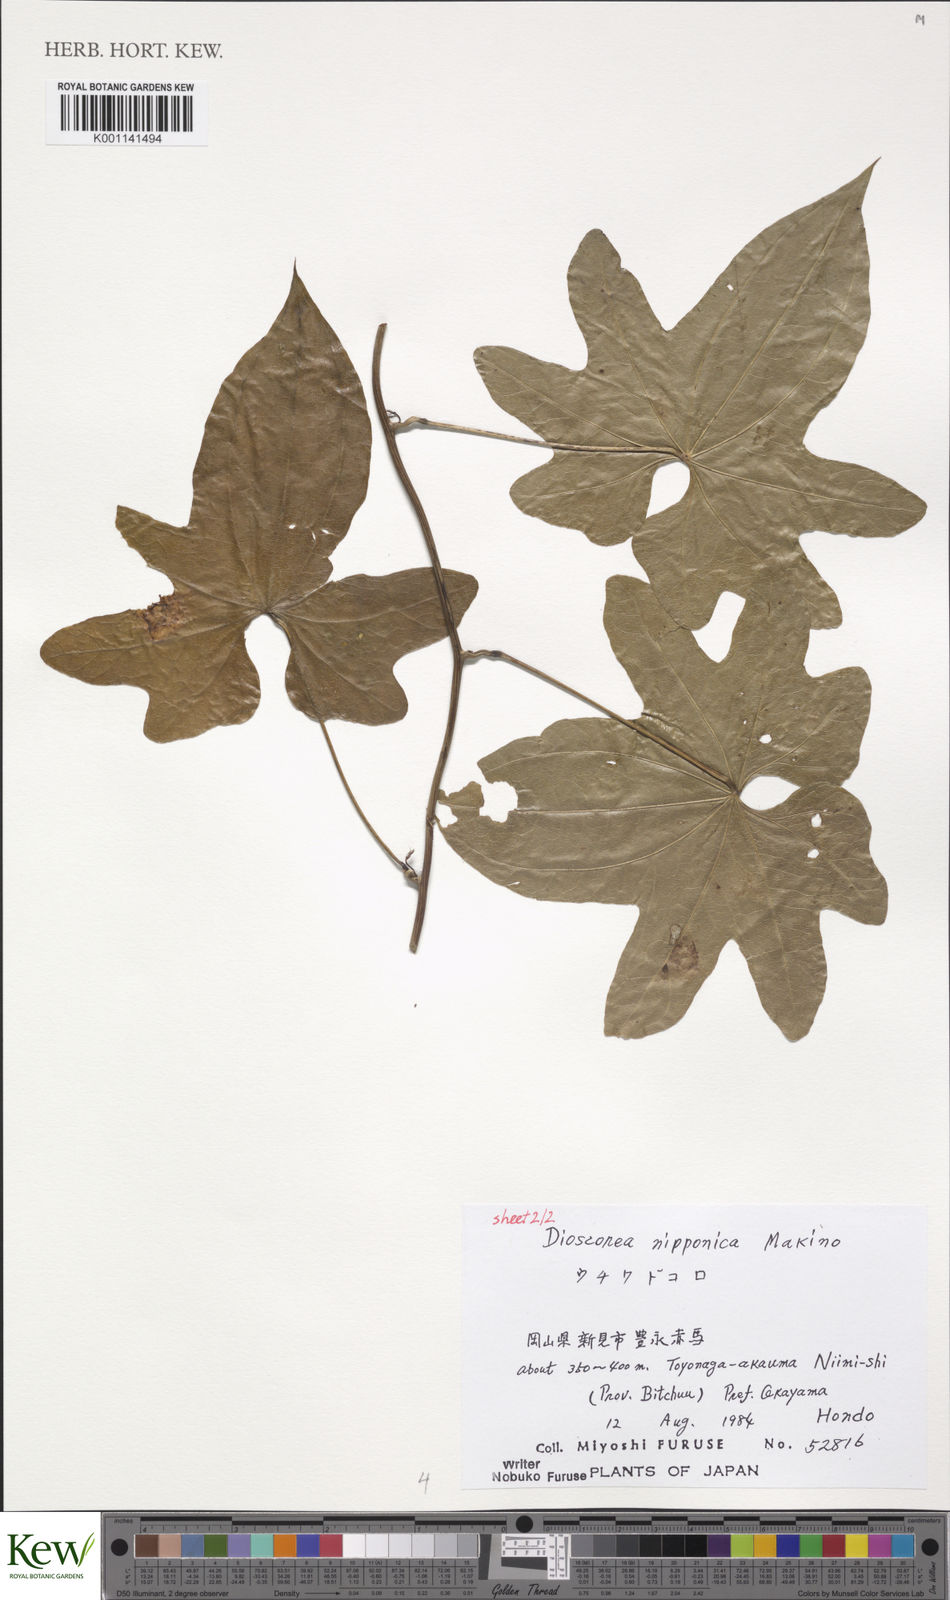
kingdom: Plantae
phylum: Tracheophyta
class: Liliopsida
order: Dioscoreales
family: Dioscoreaceae
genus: Dioscorea
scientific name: Dioscorea nipponica
